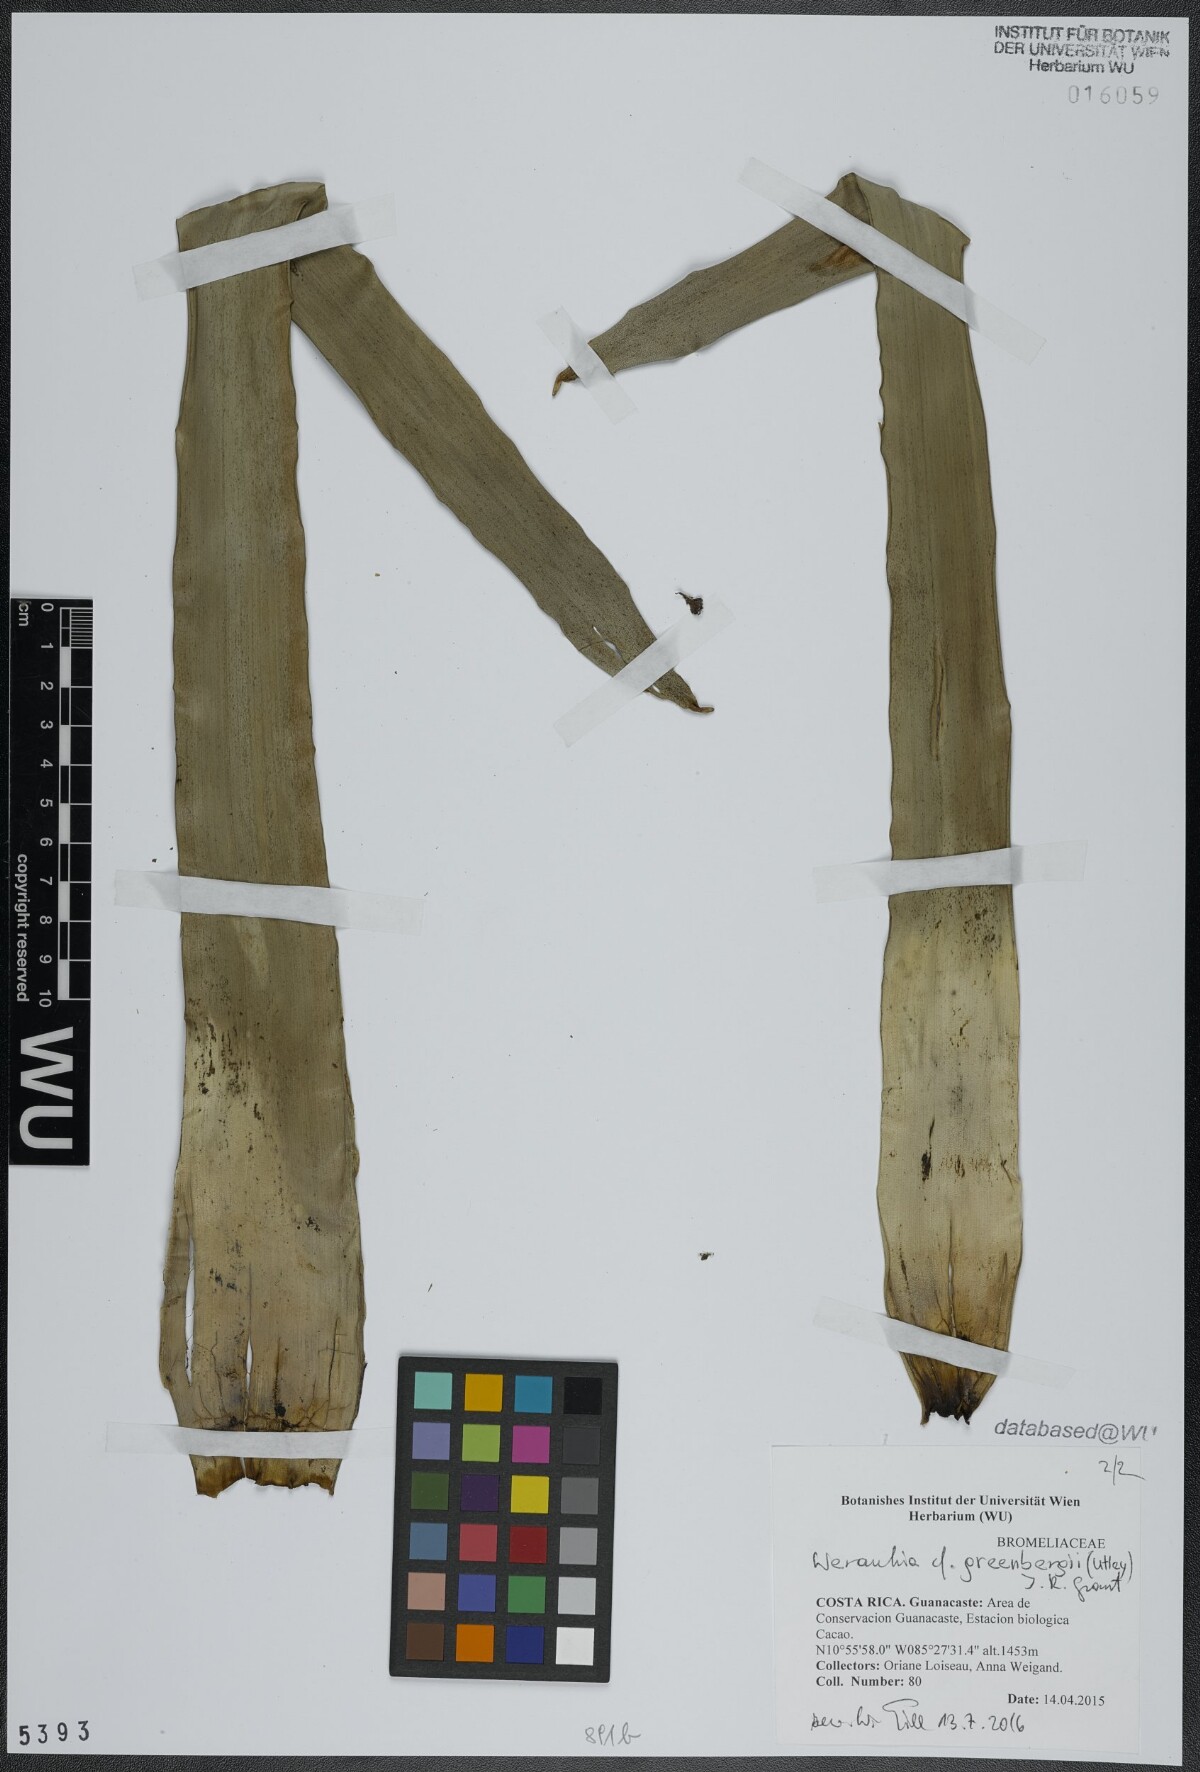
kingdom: Plantae
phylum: Tracheophyta
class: Liliopsida
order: Poales
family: Bromeliaceae
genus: Werauhia
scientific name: Werauhia patzeltii
